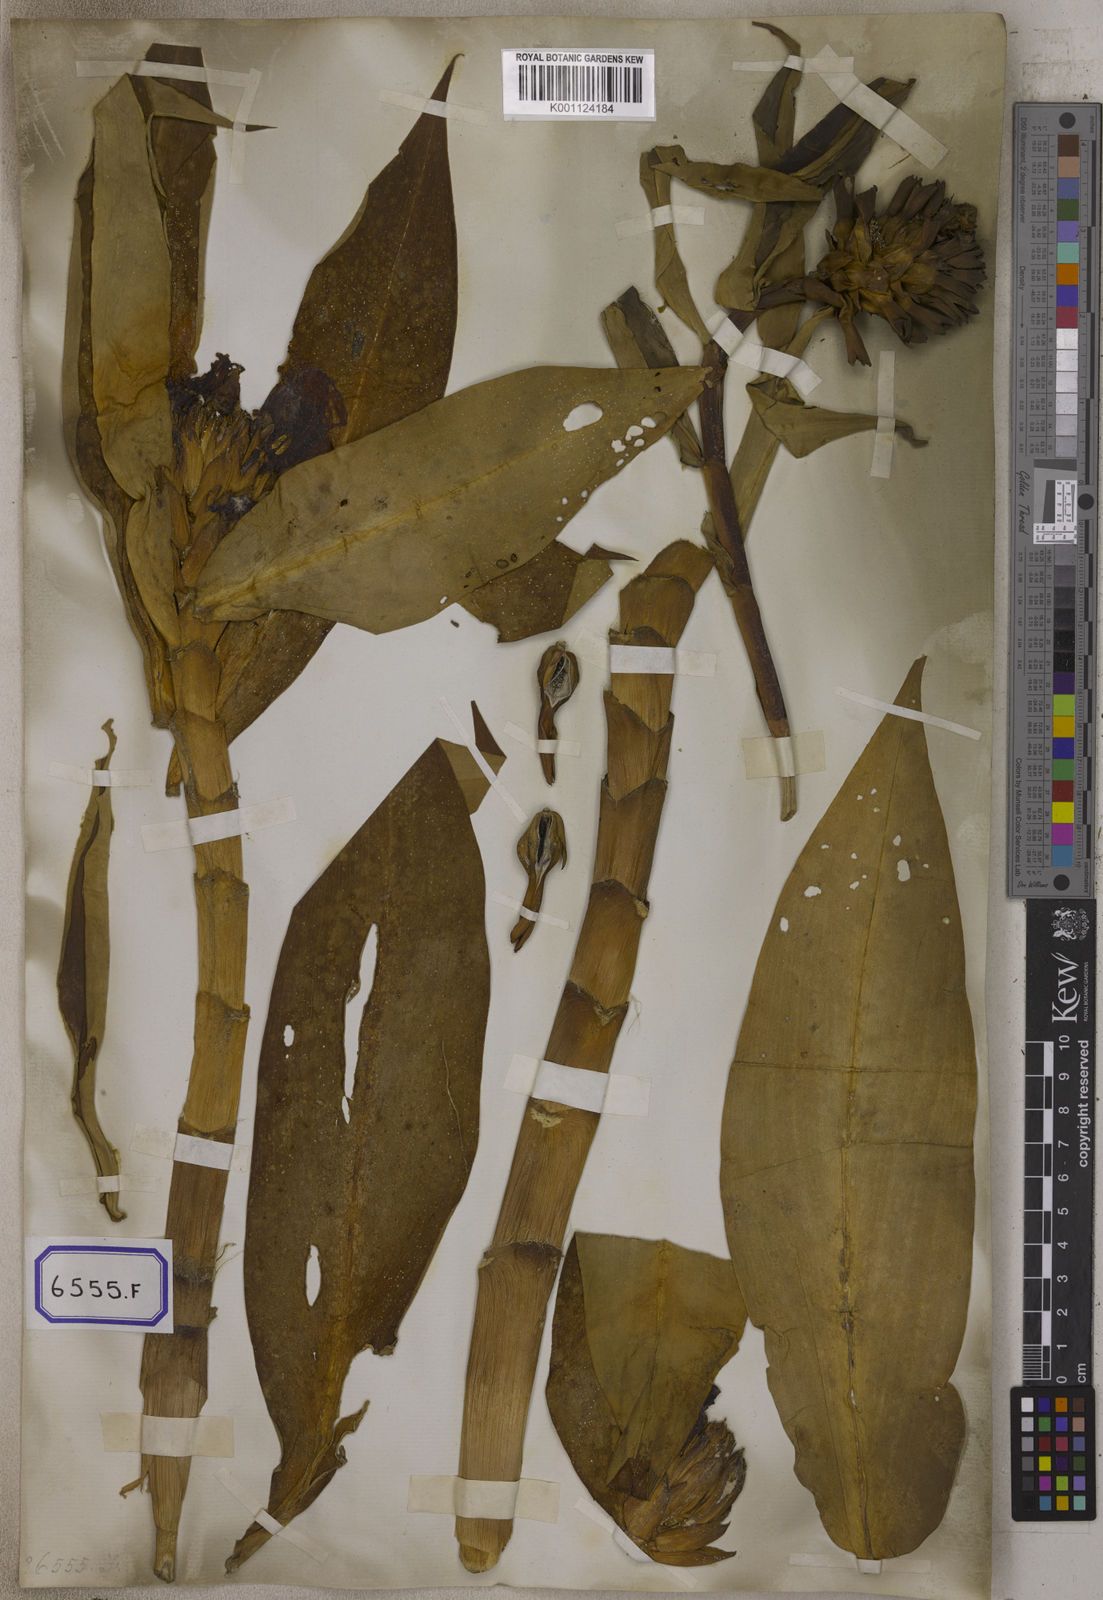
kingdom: Plantae
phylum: Tracheophyta
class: Liliopsida
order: Zingiberales
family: Costaceae
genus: Hellenia
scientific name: Hellenia speciosa
